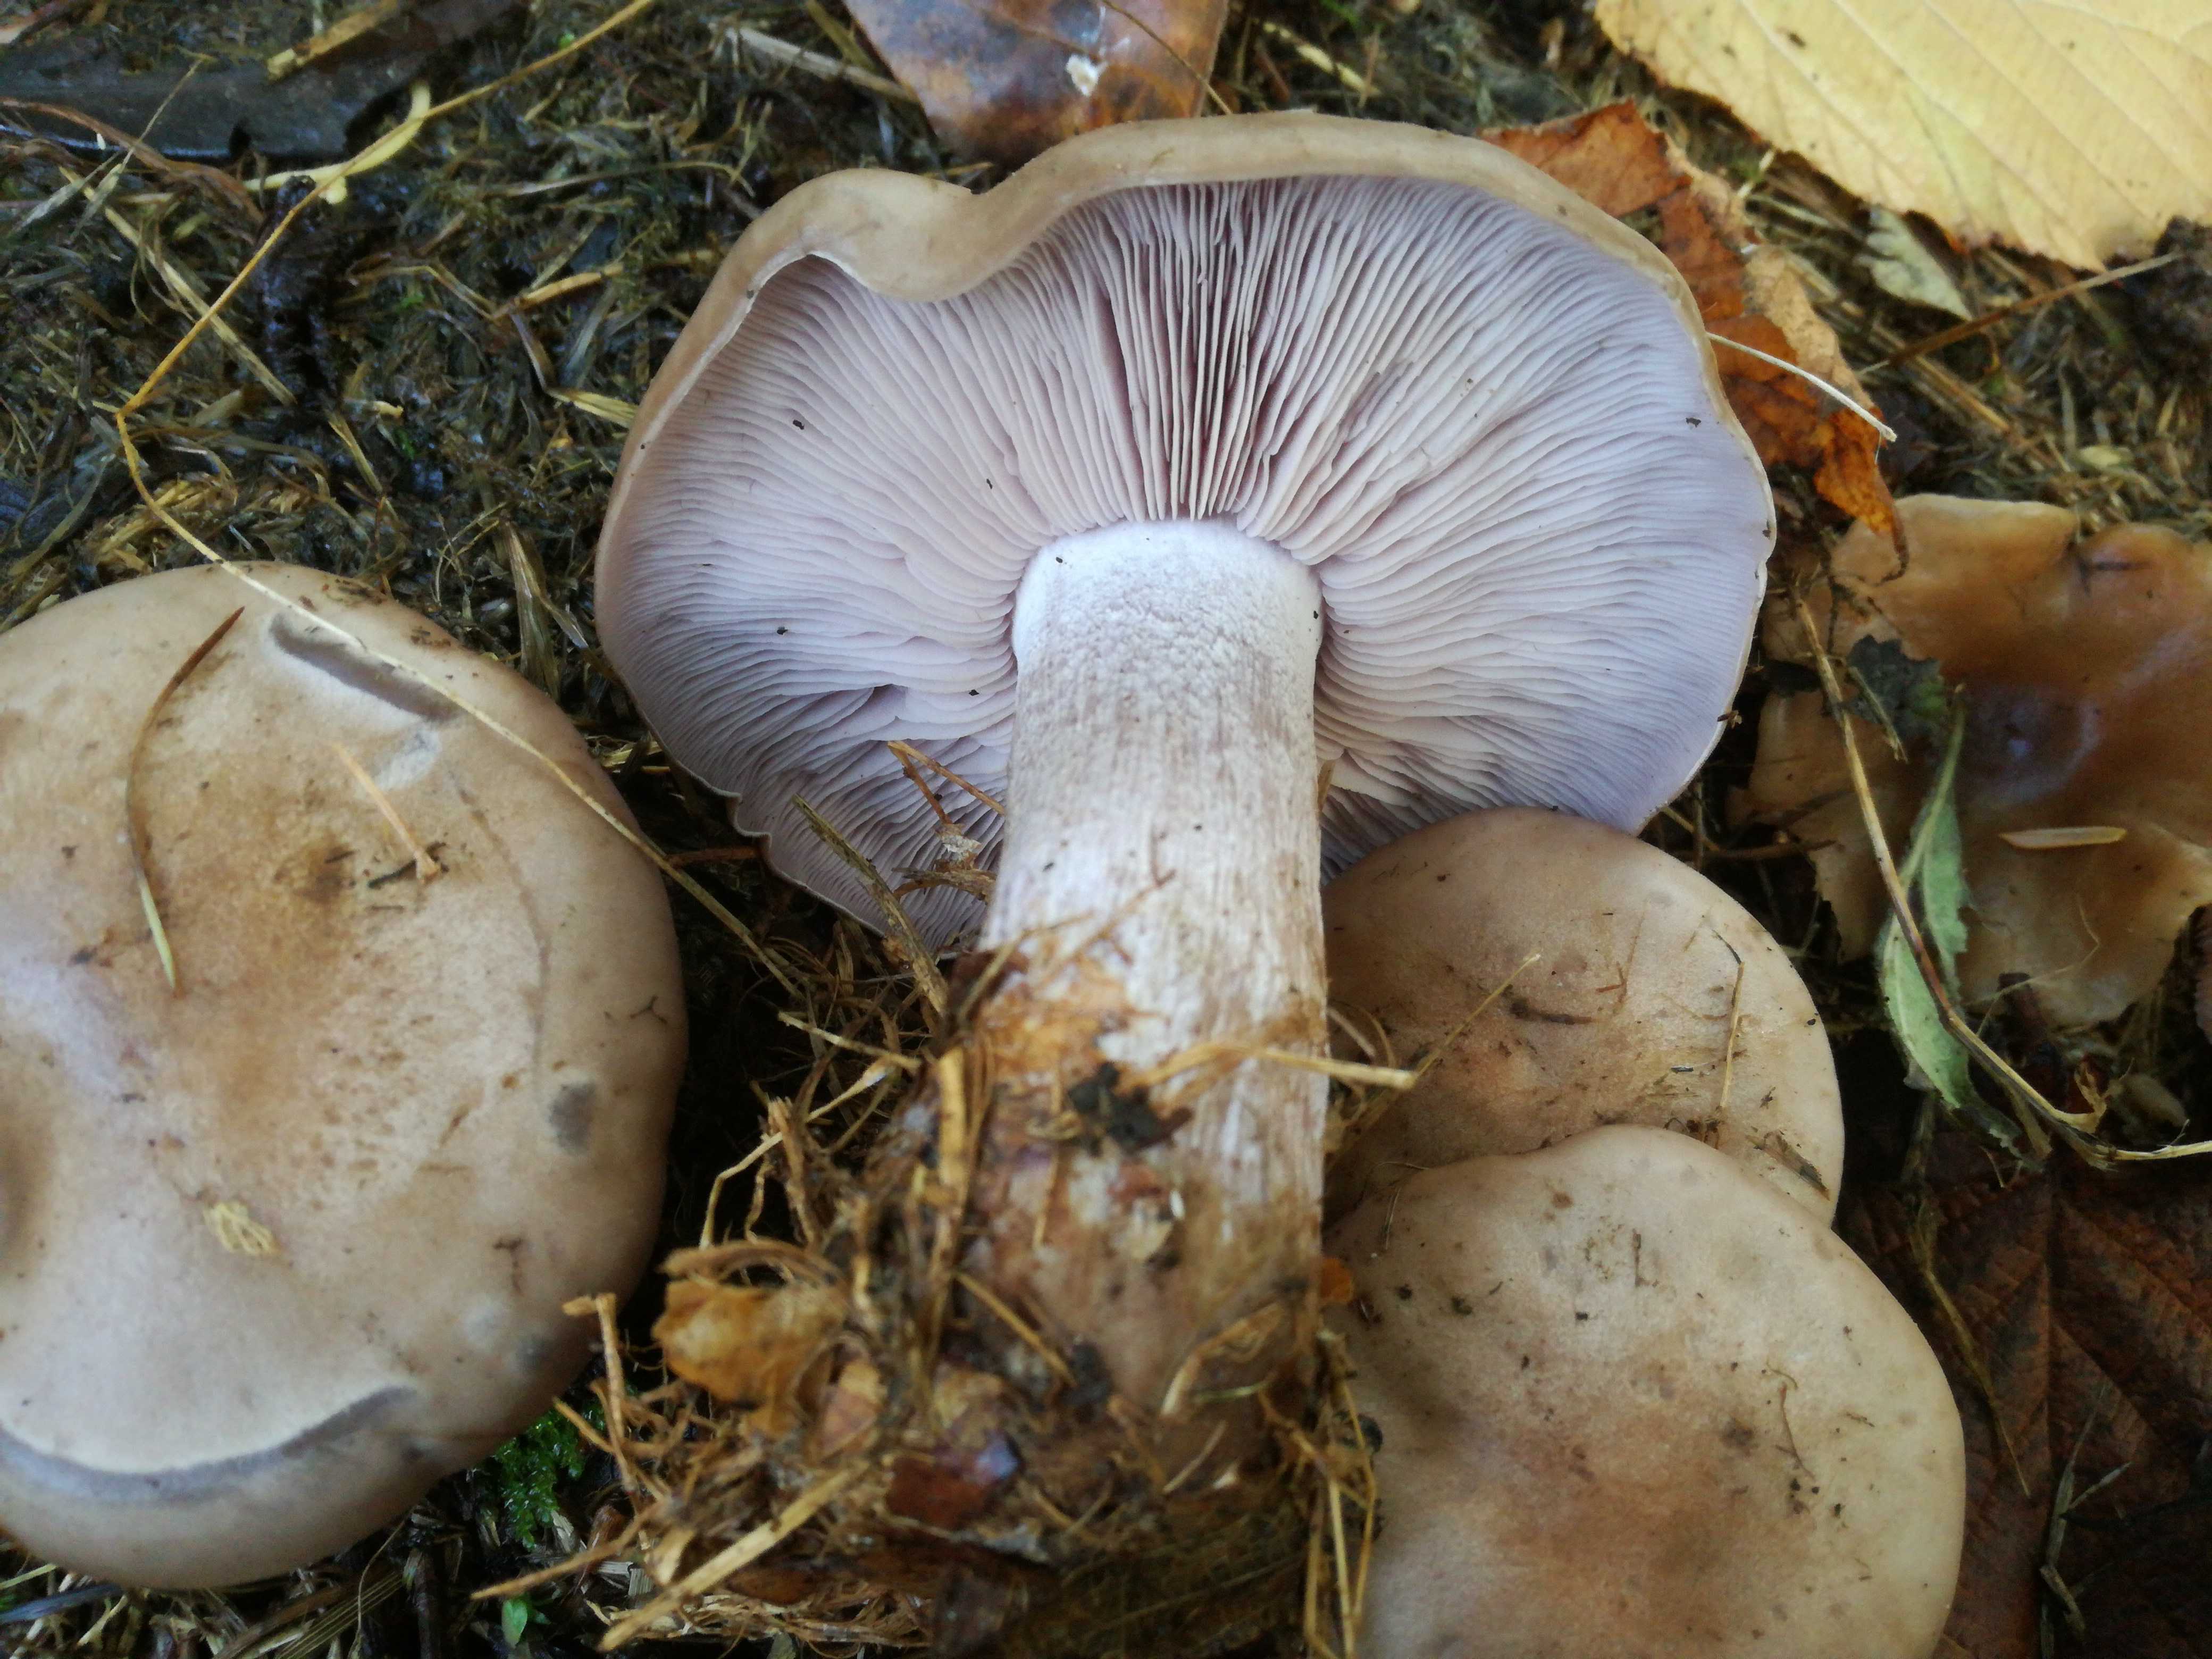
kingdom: Fungi
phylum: Basidiomycota
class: Agaricomycetes
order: Agaricales
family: Tricholomataceae
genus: Lepista
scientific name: Lepista nuda
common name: violet hekseringshat
